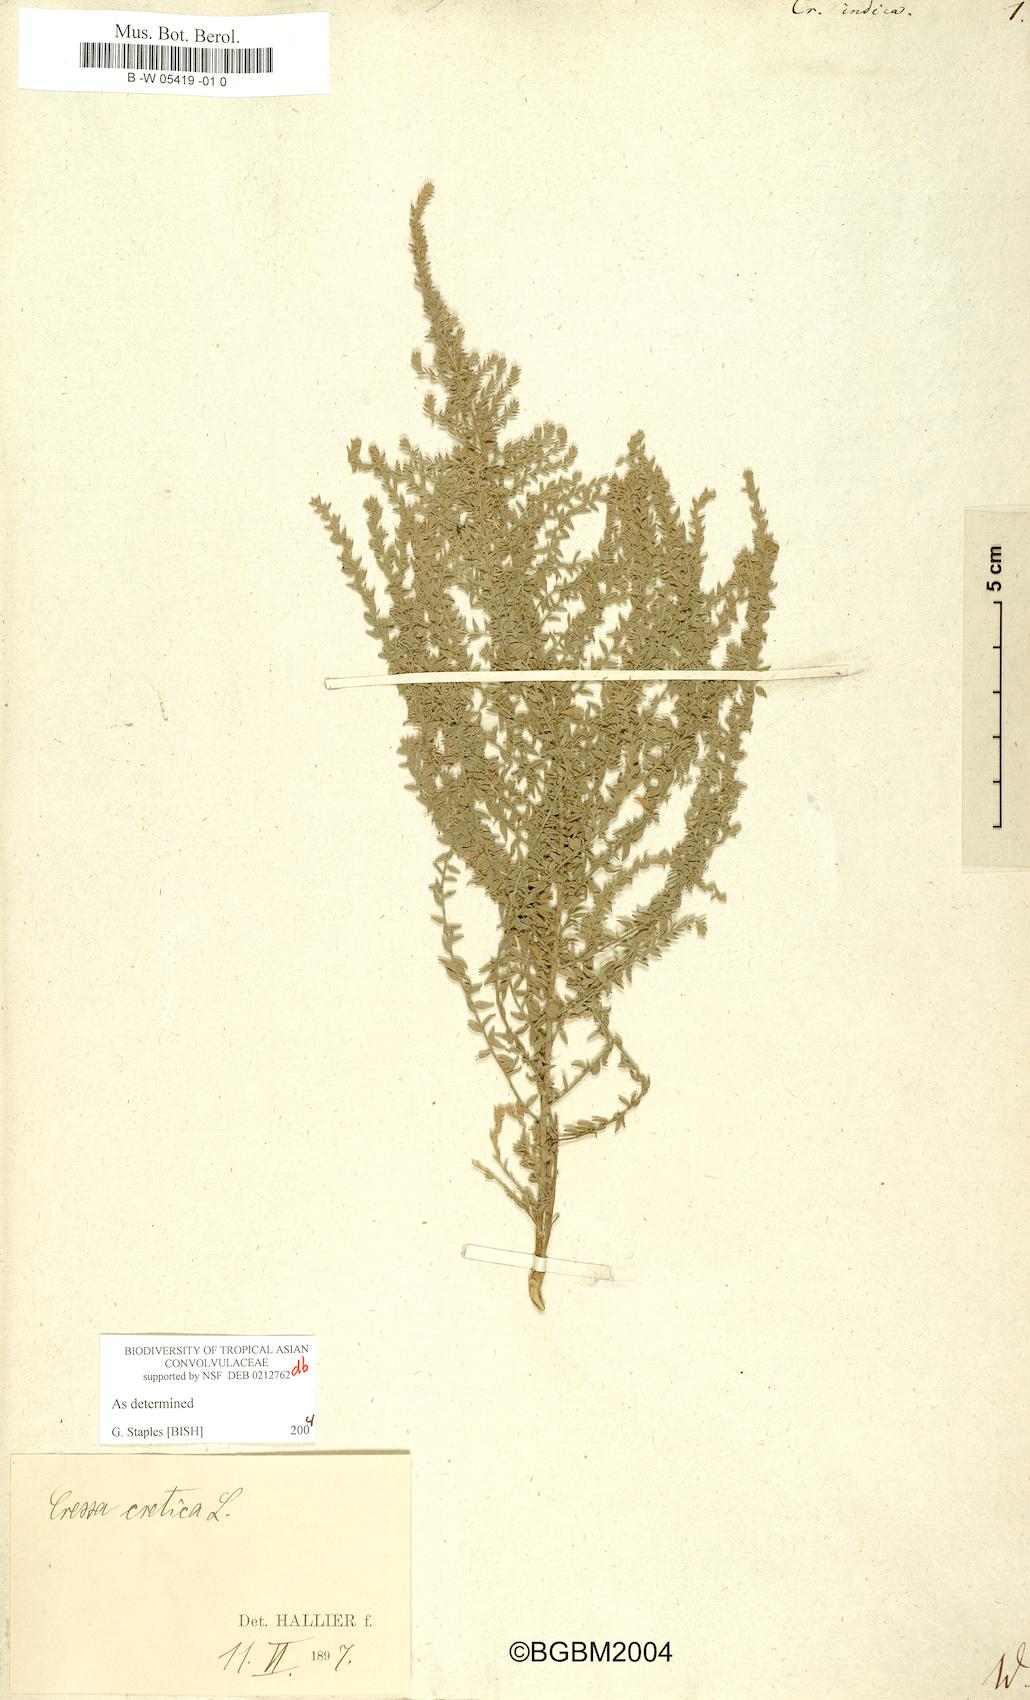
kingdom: Plantae
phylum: Tracheophyta
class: Magnoliopsida
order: Solanales
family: Convolvulaceae
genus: Cressa
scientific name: Cressa cretica
